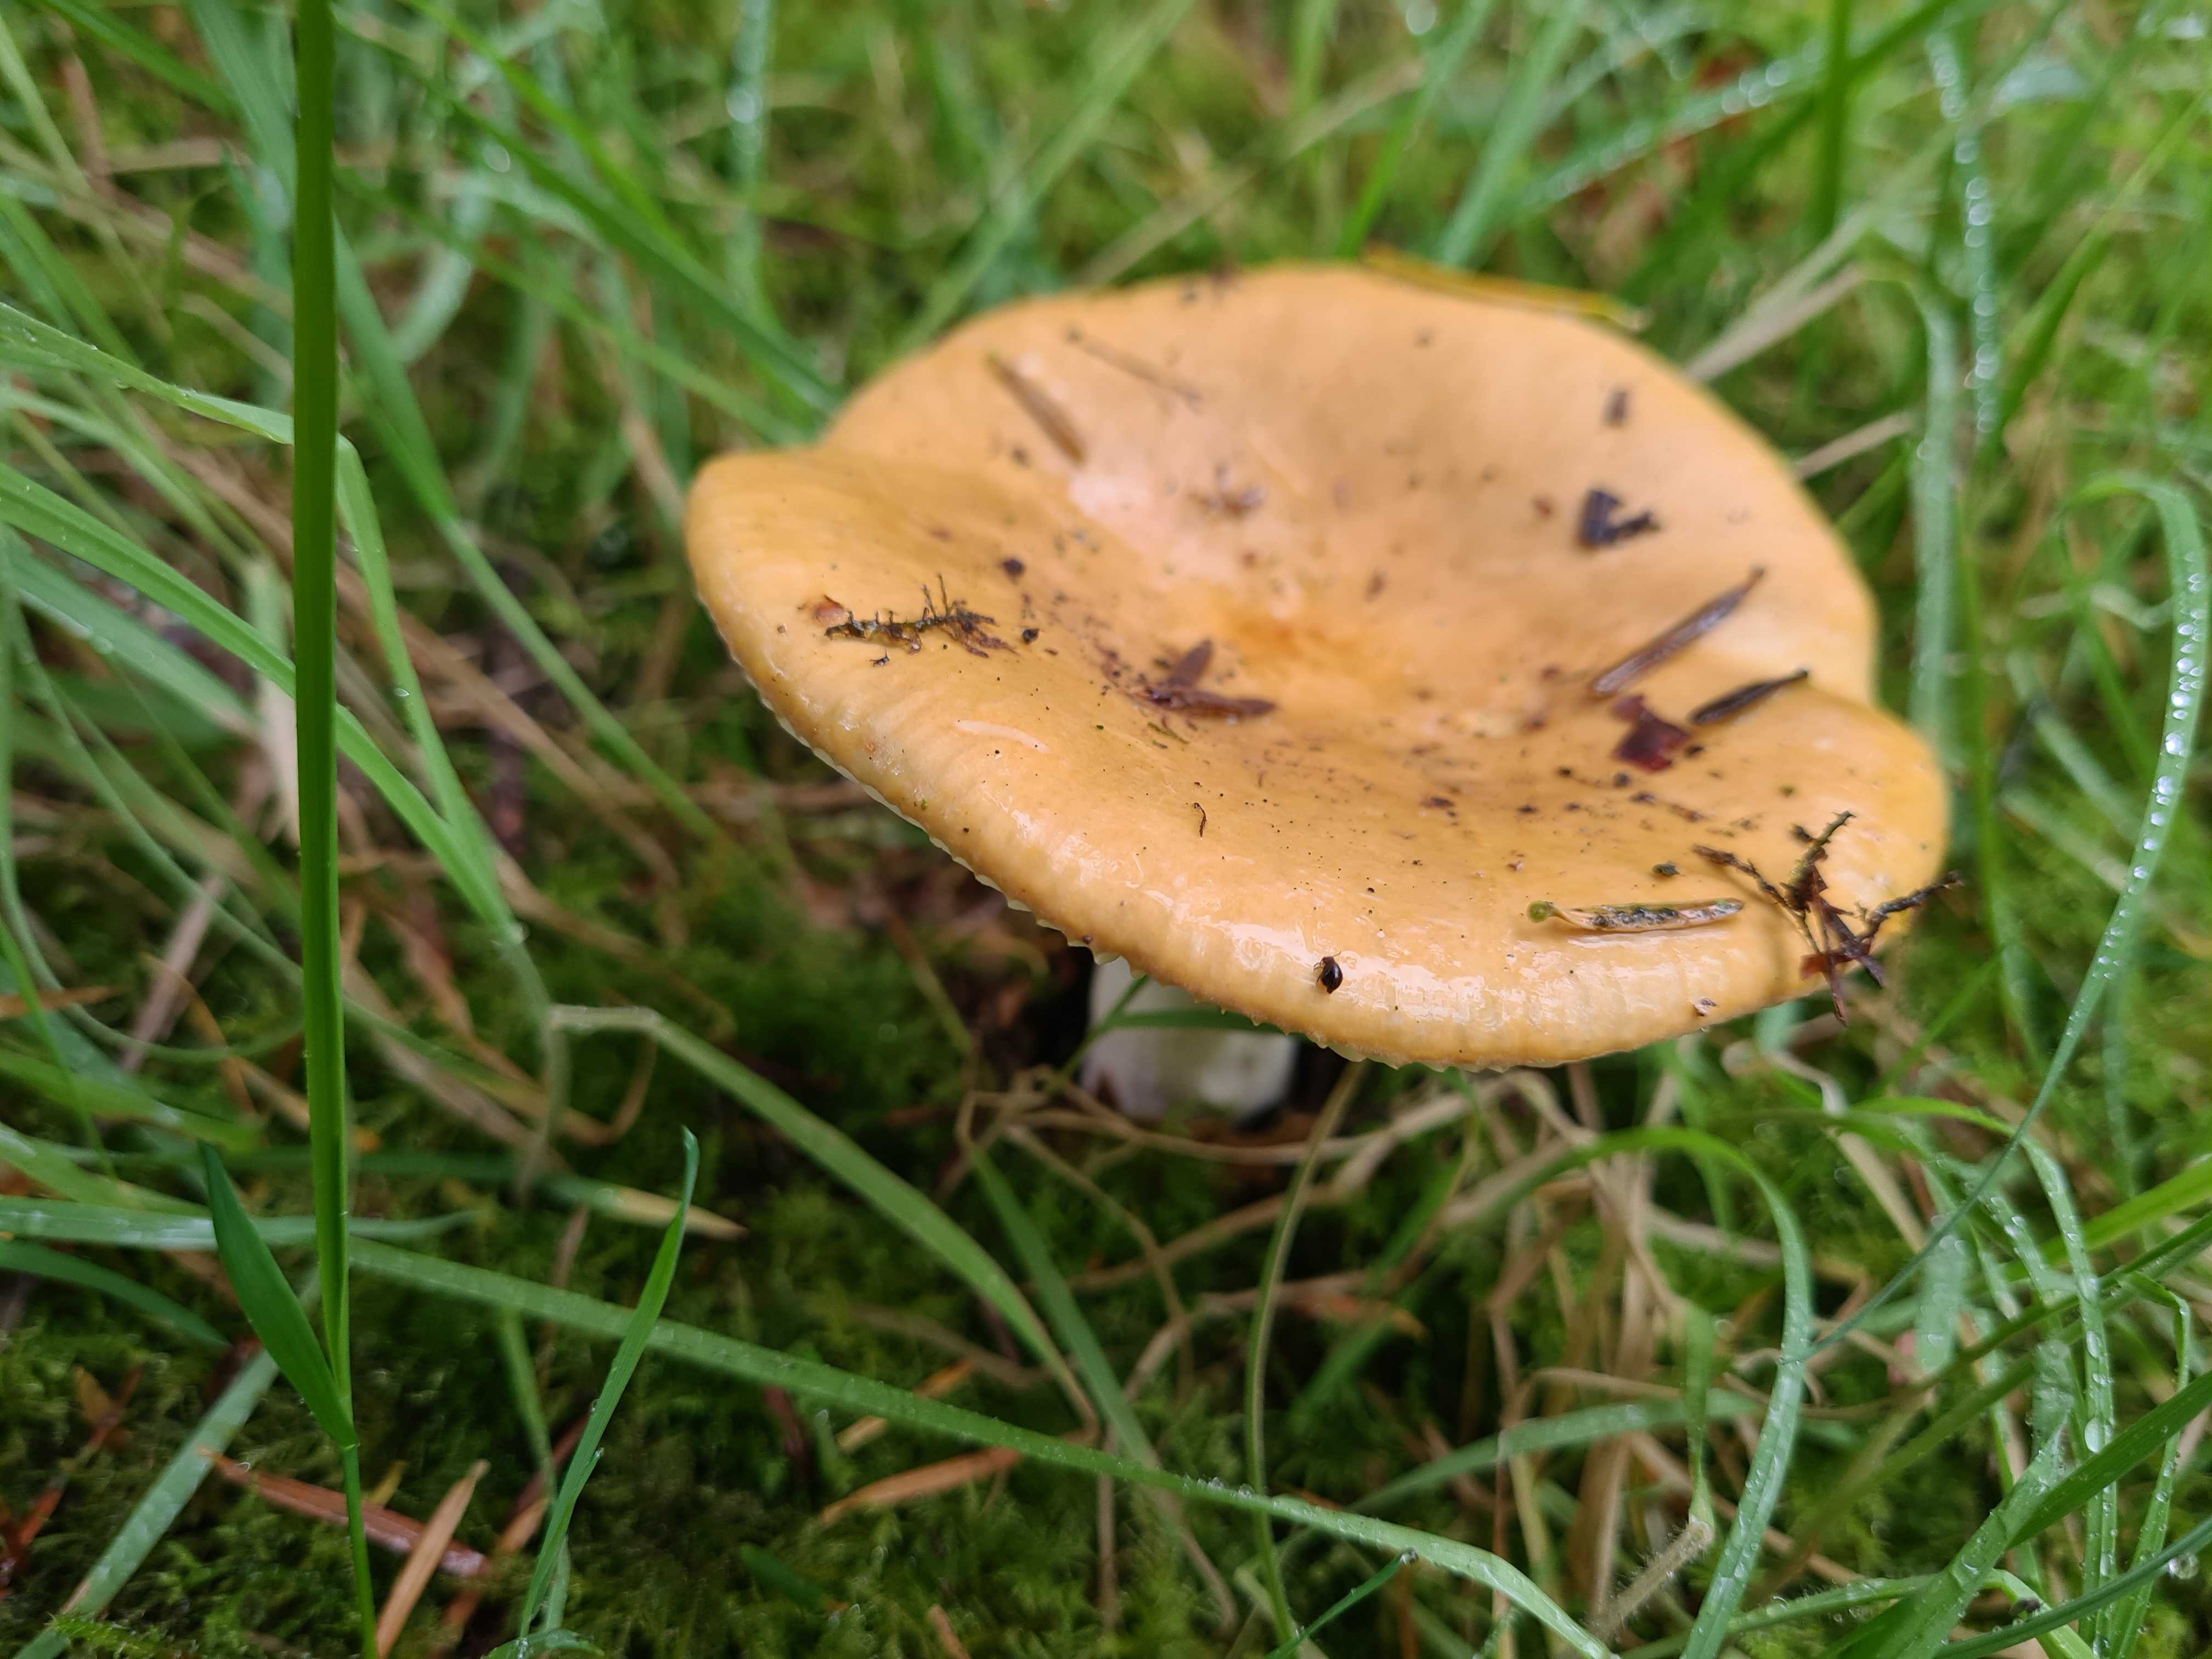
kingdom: Fungi
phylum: Basidiomycota
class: Agaricomycetes
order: Russulales
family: Russulaceae
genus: Russula
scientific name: Russula ochroleuca
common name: okkergul skørhat
